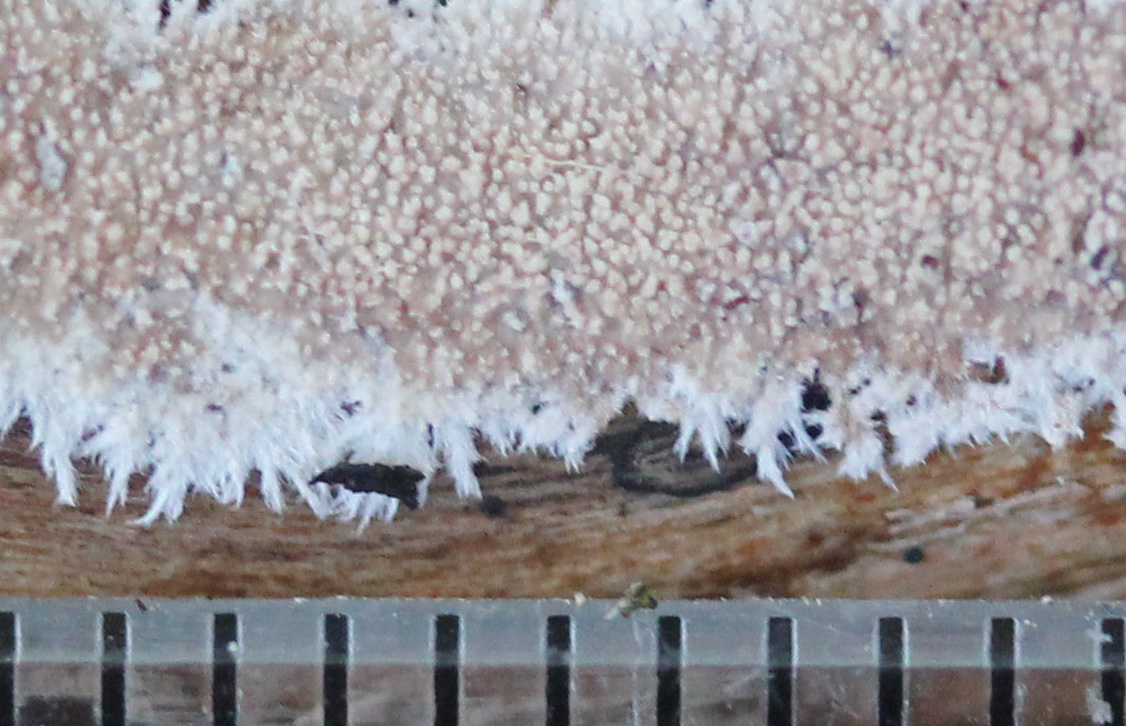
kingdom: Fungi
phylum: Basidiomycota
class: Agaricomycetes
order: Polyporales
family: Steccherinaceae
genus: Steccherinum
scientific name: Steccherinum fimbriatum
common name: trådet skønpig
